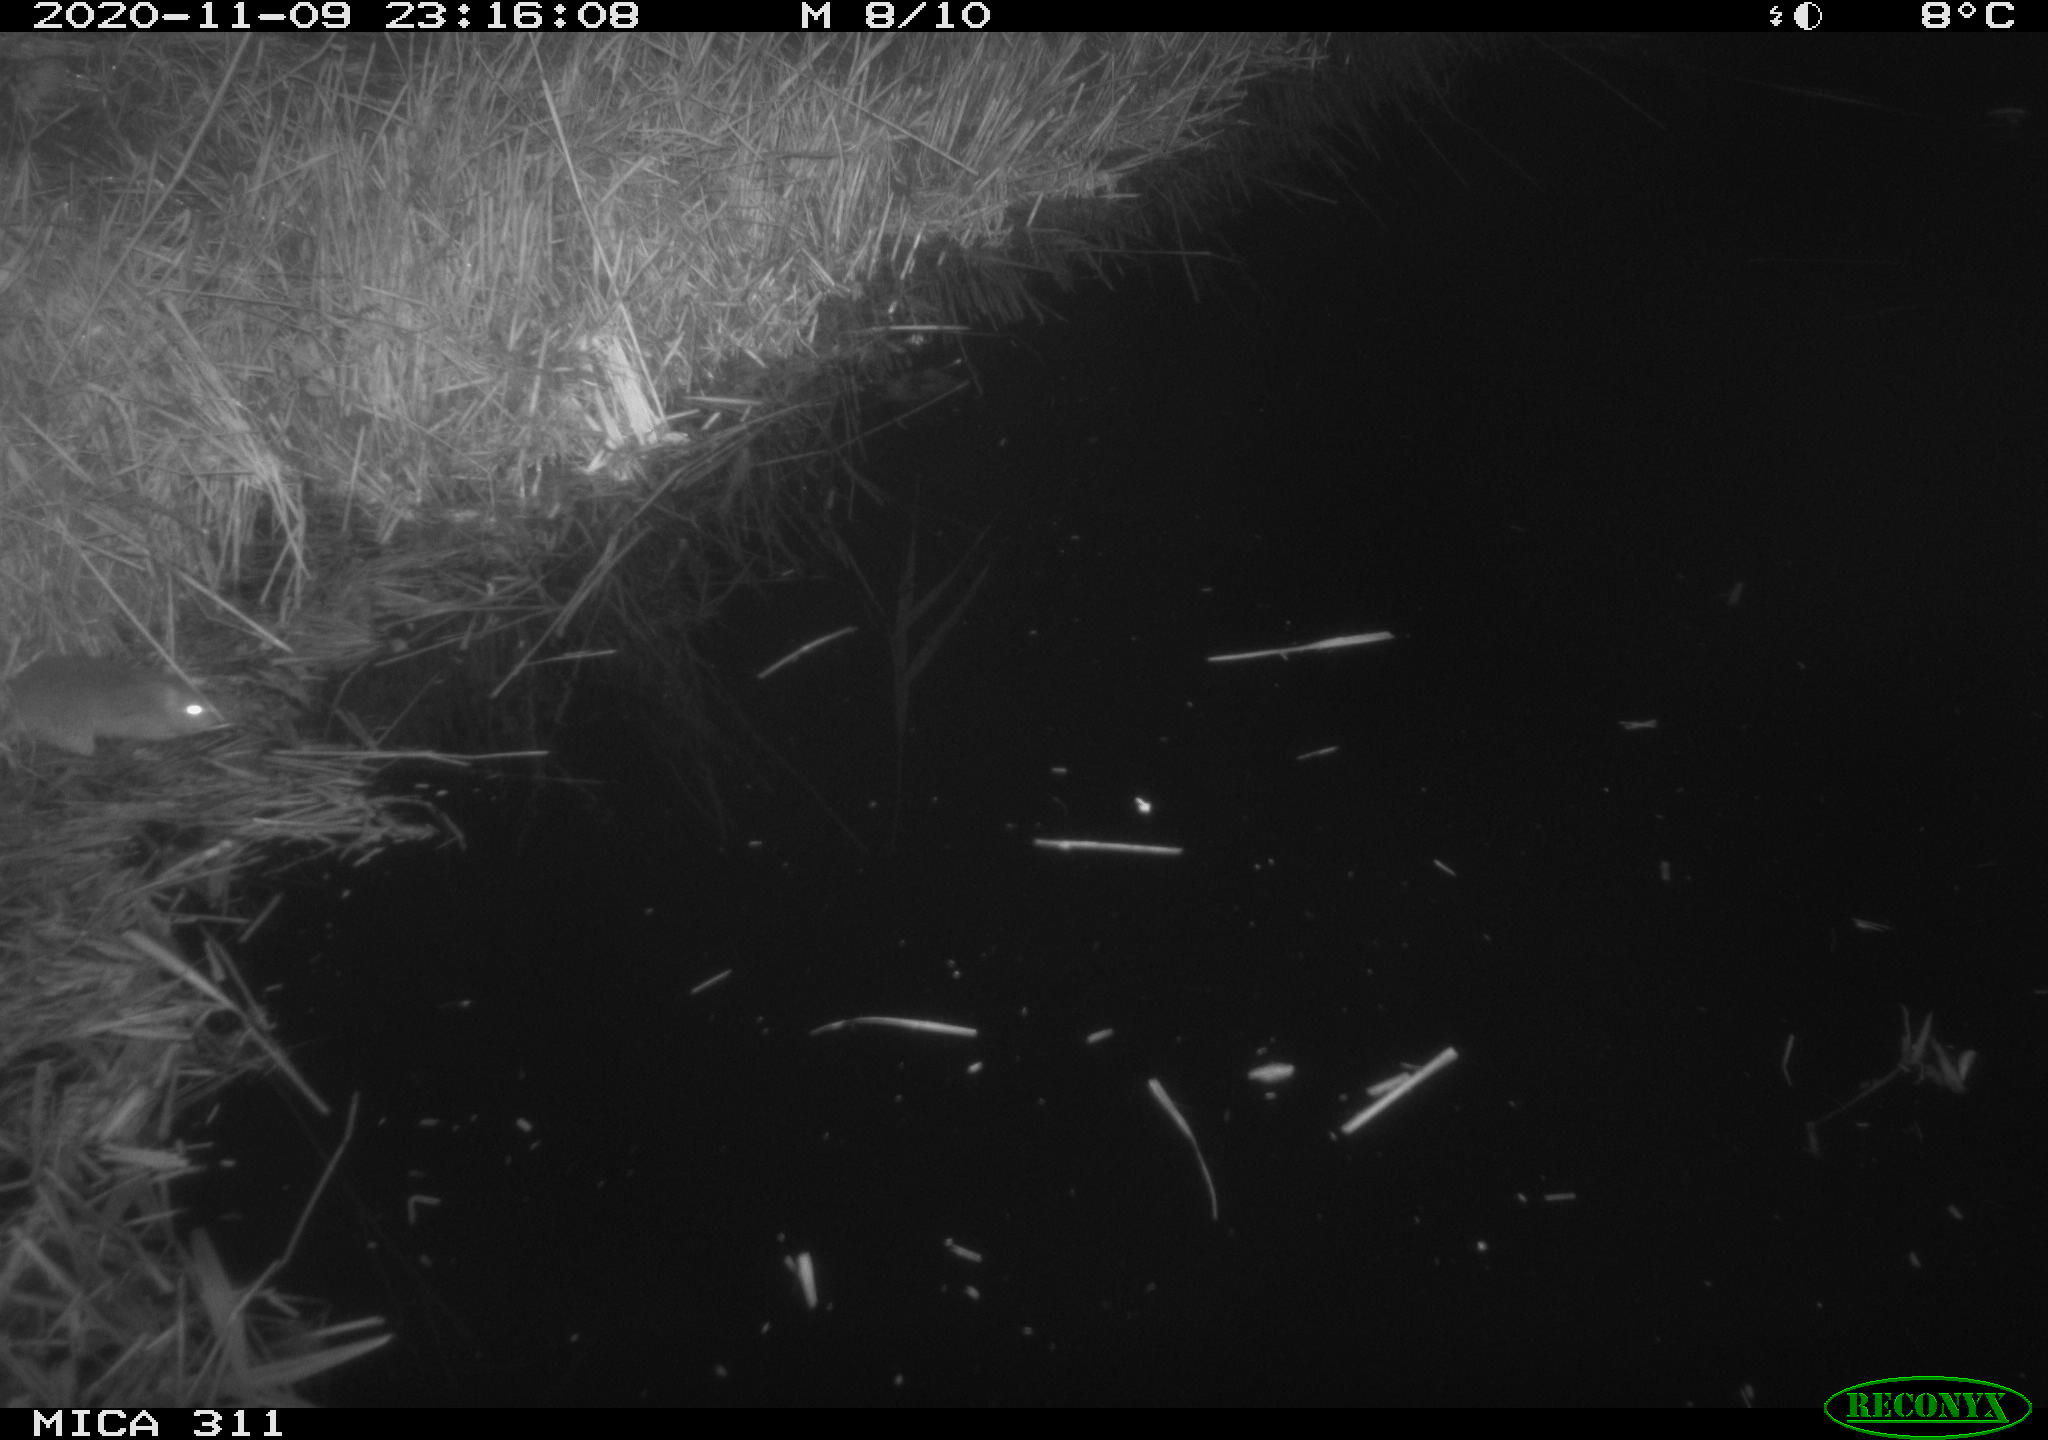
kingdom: Animalia
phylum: Chordata
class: Mammalia
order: Rodentia
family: Muridae
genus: Rattus
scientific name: Rattus norvegicus
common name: Brown rat
